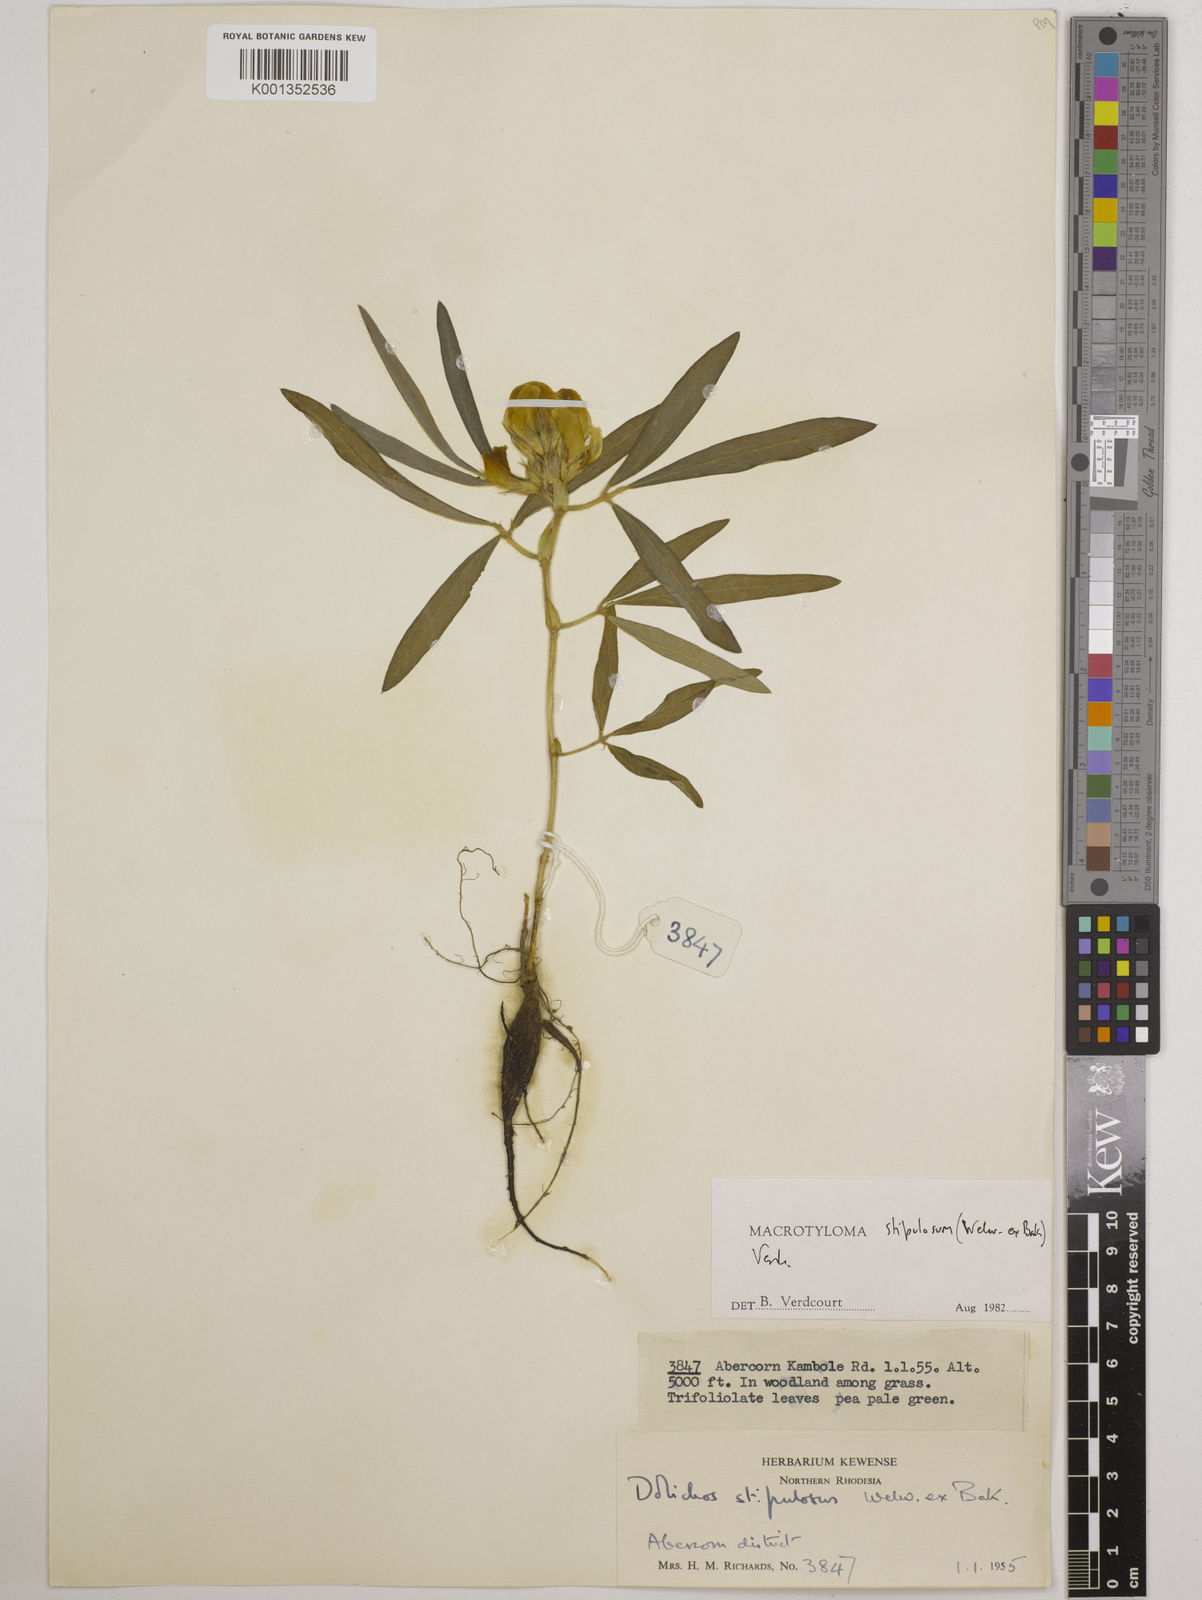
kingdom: Plantae
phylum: Tracheophyta
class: Magnoliopsida
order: Fabales
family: Fabaceae
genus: Macrotyloma
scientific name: Macrotyloma stipulosum
